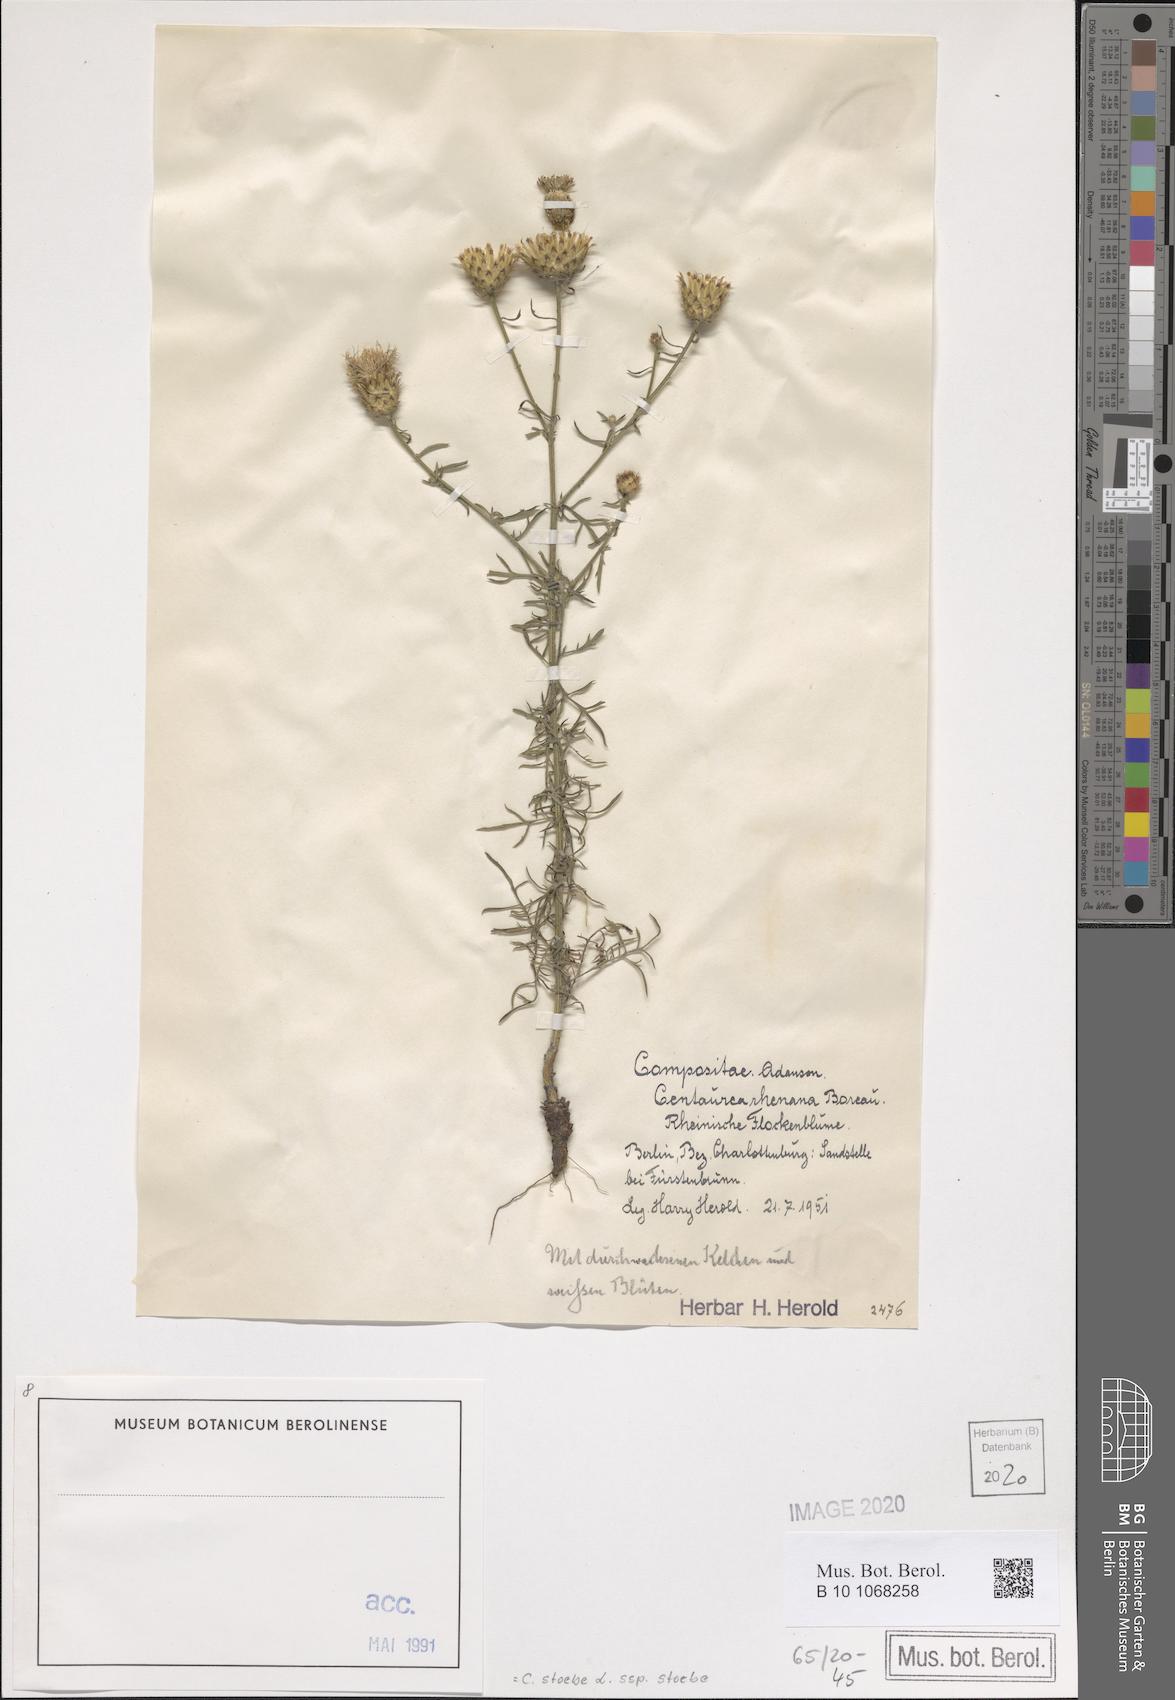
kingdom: Plantae
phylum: Tracheophyta
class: Magnoliopsida
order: Asterales
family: Asteraceae
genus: Centaurea
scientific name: Centaurea stoebe
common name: Spotted knapweed
